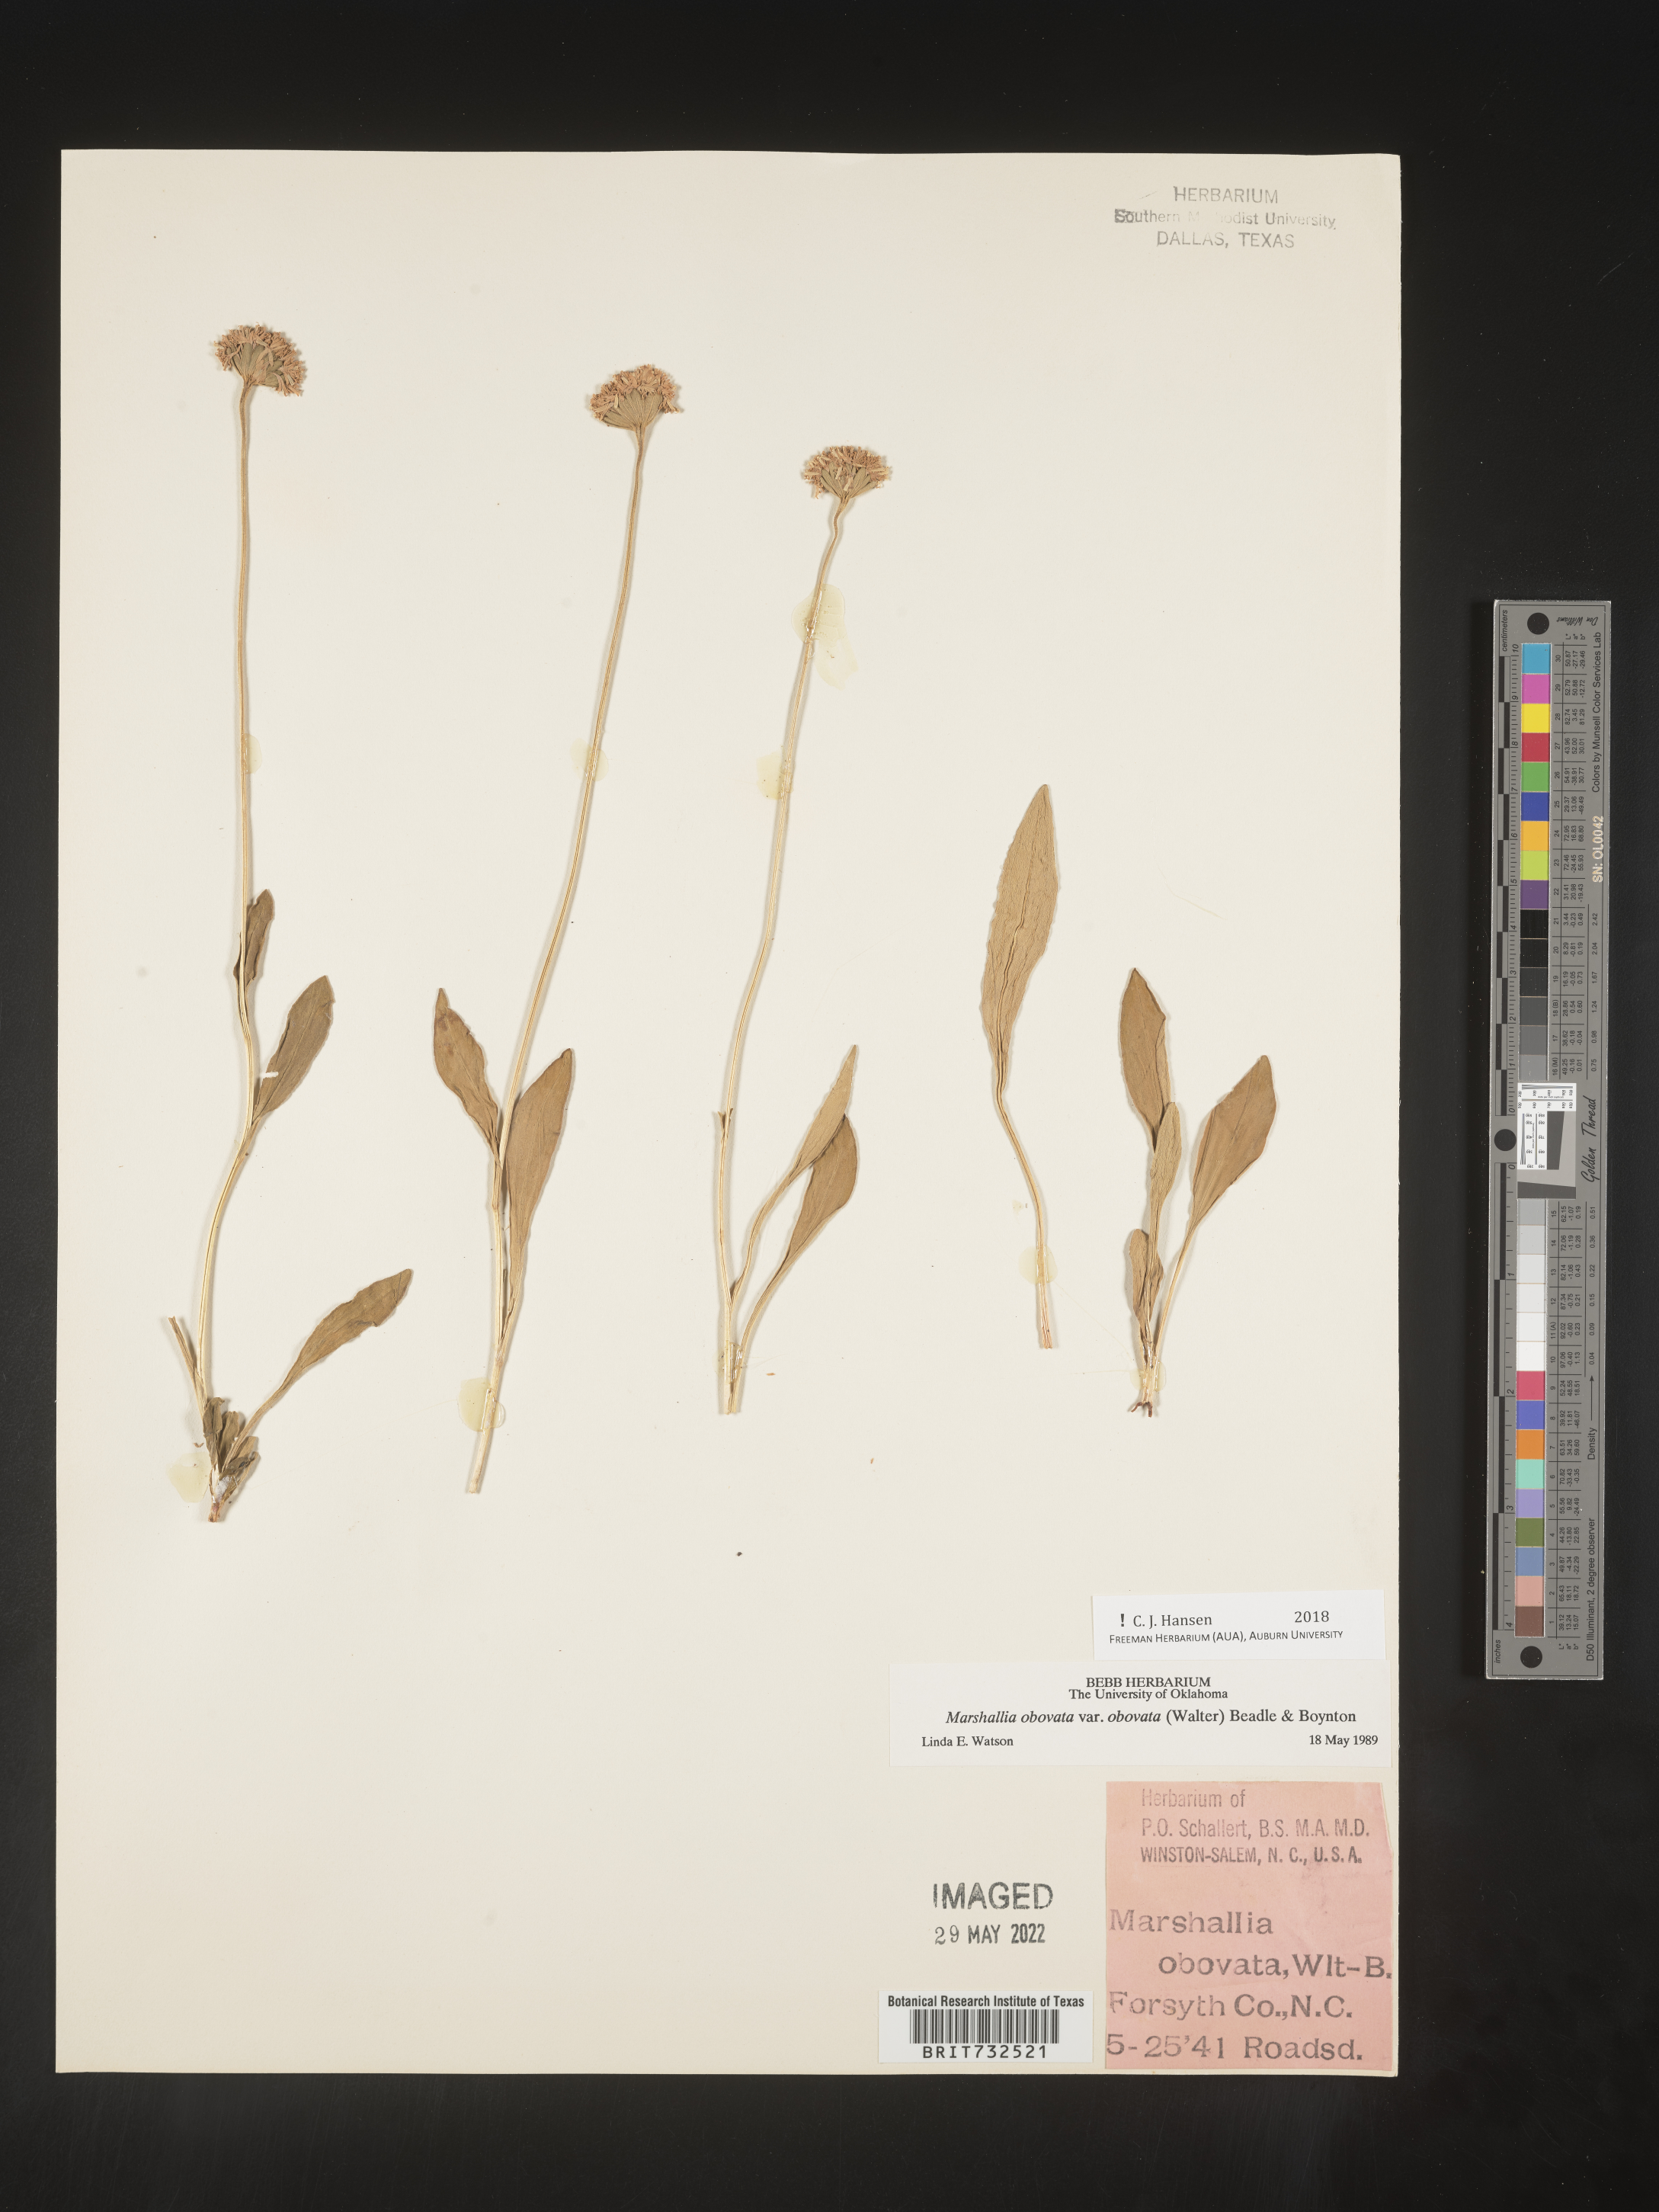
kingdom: Plantae
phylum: Tracheophyta
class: Magnoliopsida
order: Asterales
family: Asteraceae
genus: Marshallia
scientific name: Marshallia obovata
